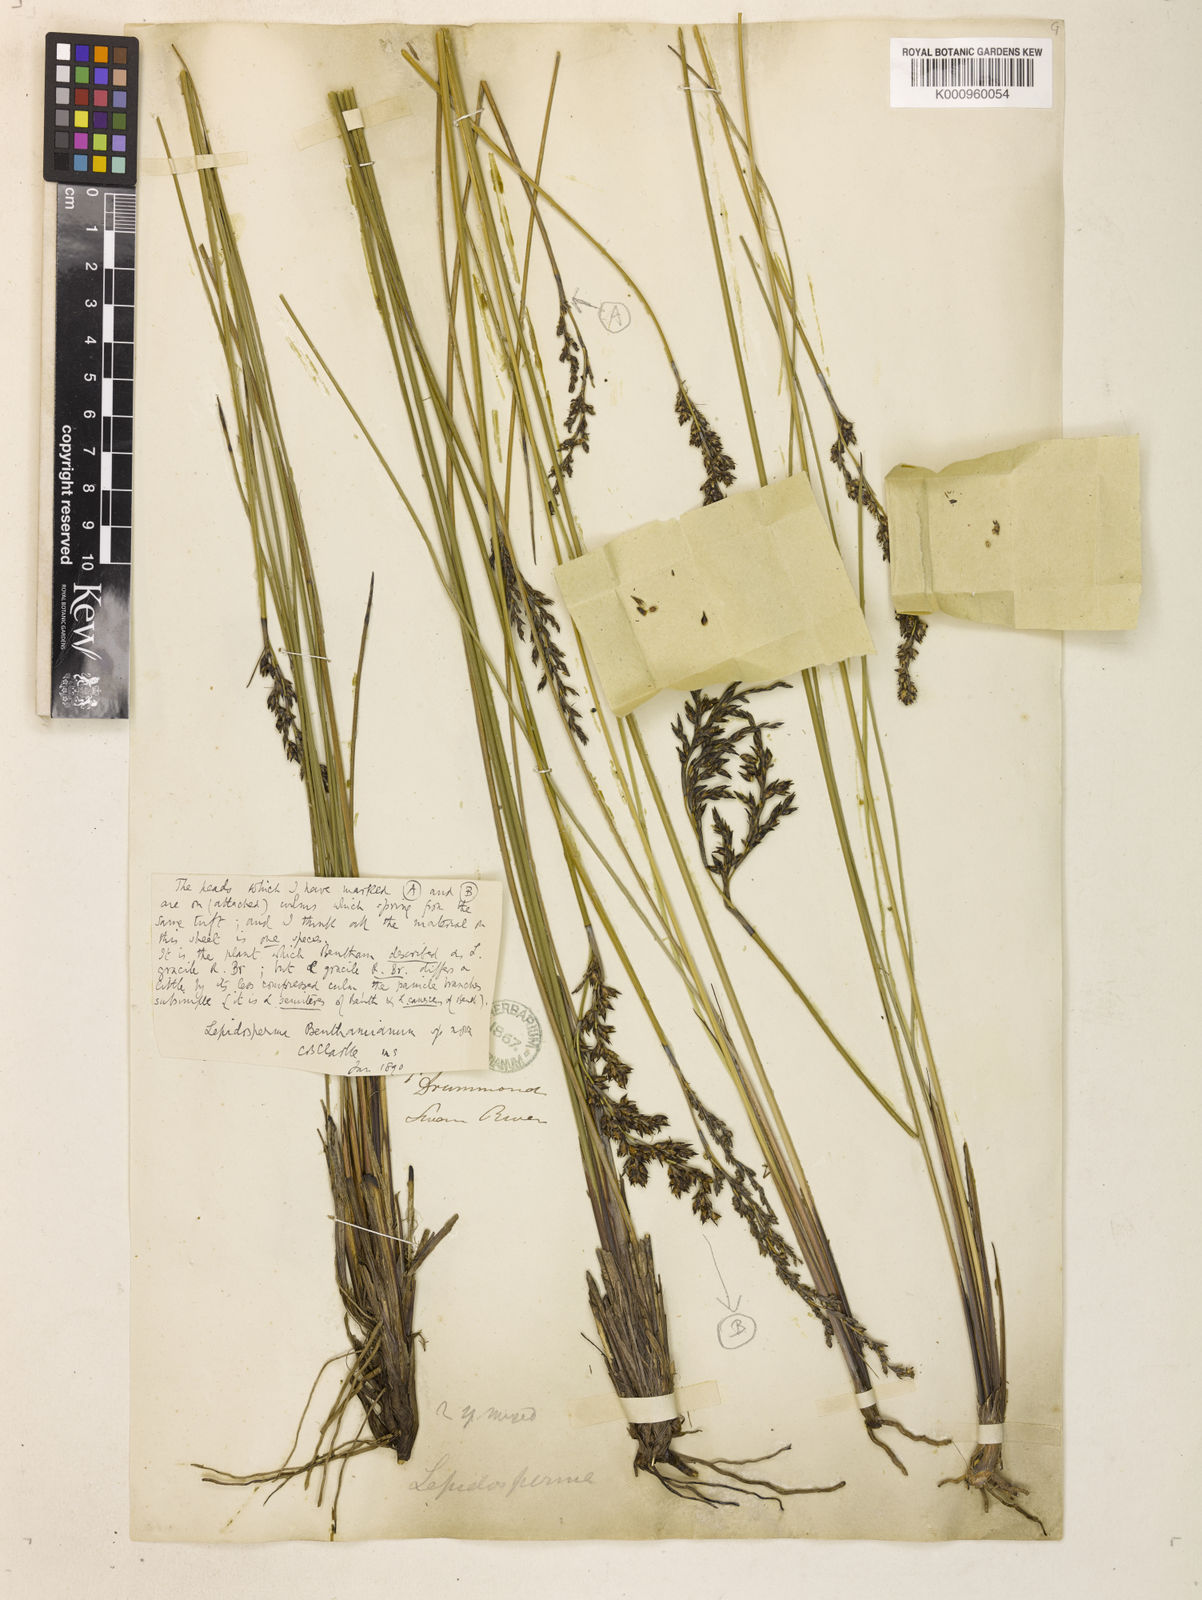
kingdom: Plantae
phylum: Tracheophyta
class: Liliopsida
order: Poales
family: Cyperaceae
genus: Lepidosperma
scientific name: Lepidosperma benthamianum
